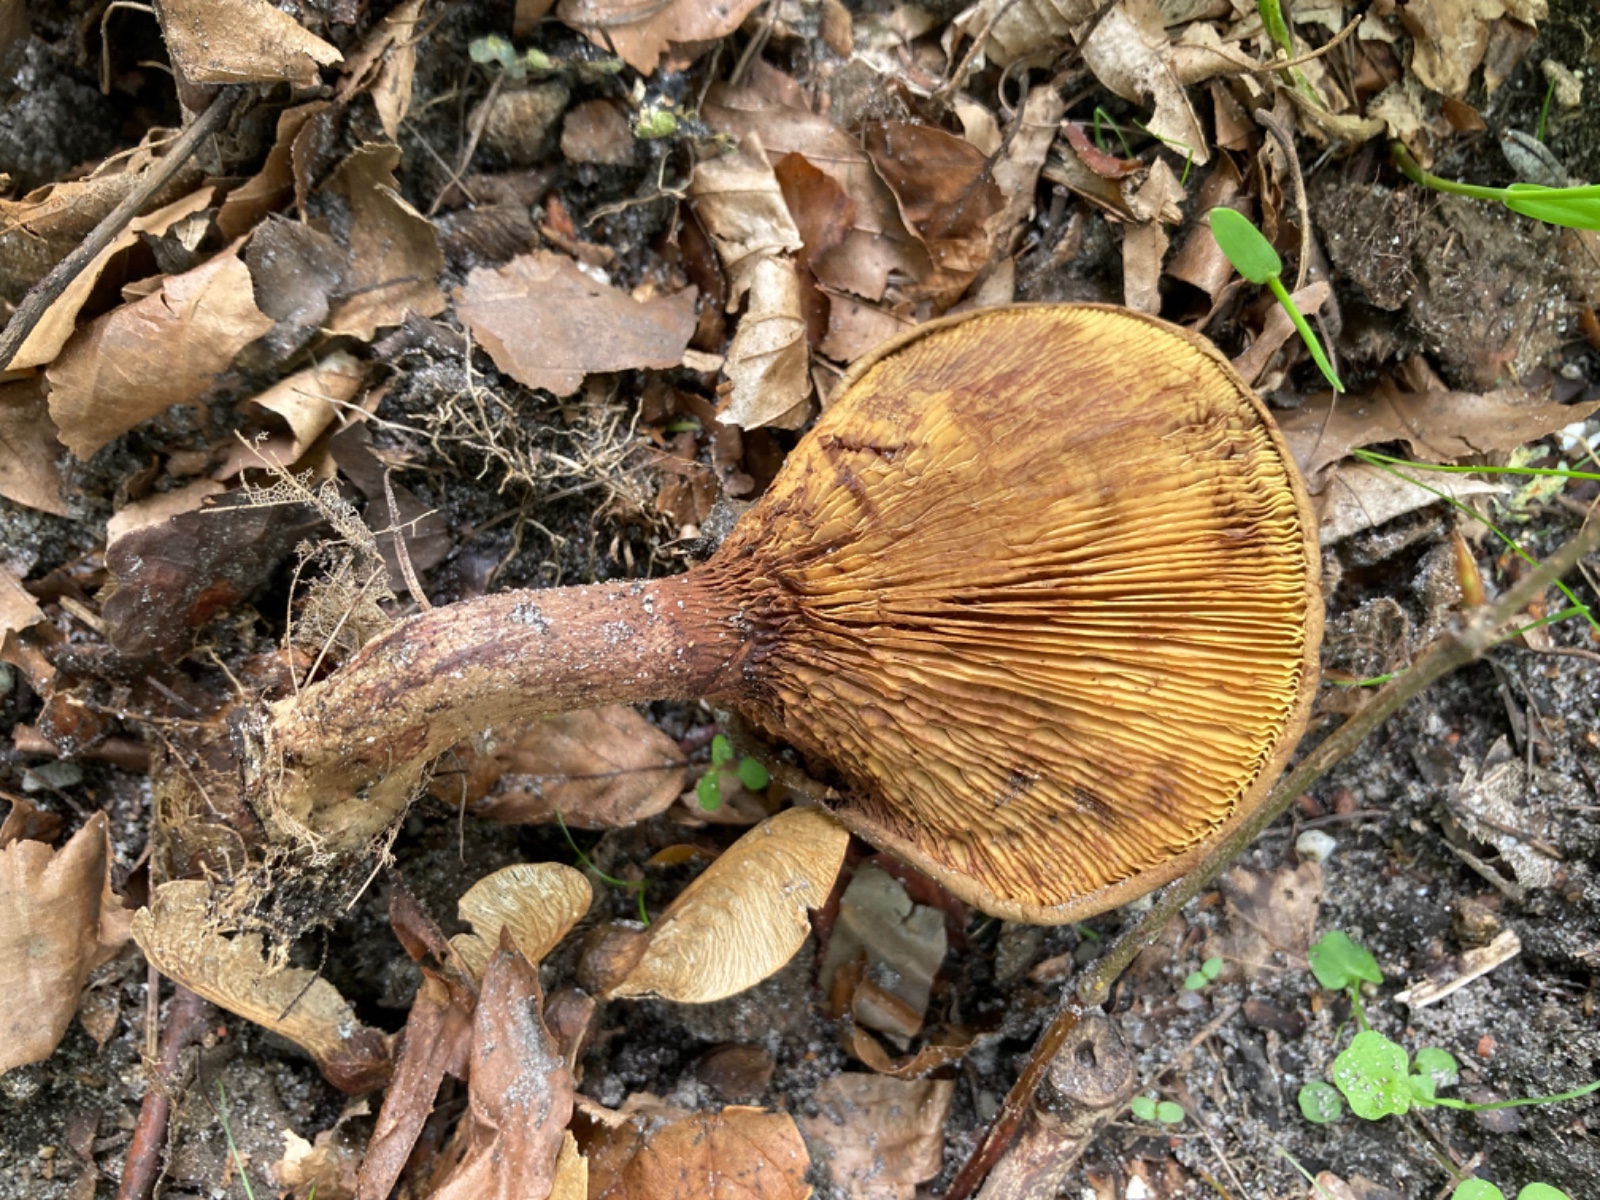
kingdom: Fungi
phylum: Basidiomycota
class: Agaricomycetes
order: Boletales
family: Paxillaceae
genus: Paxillus
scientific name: Paxillus
